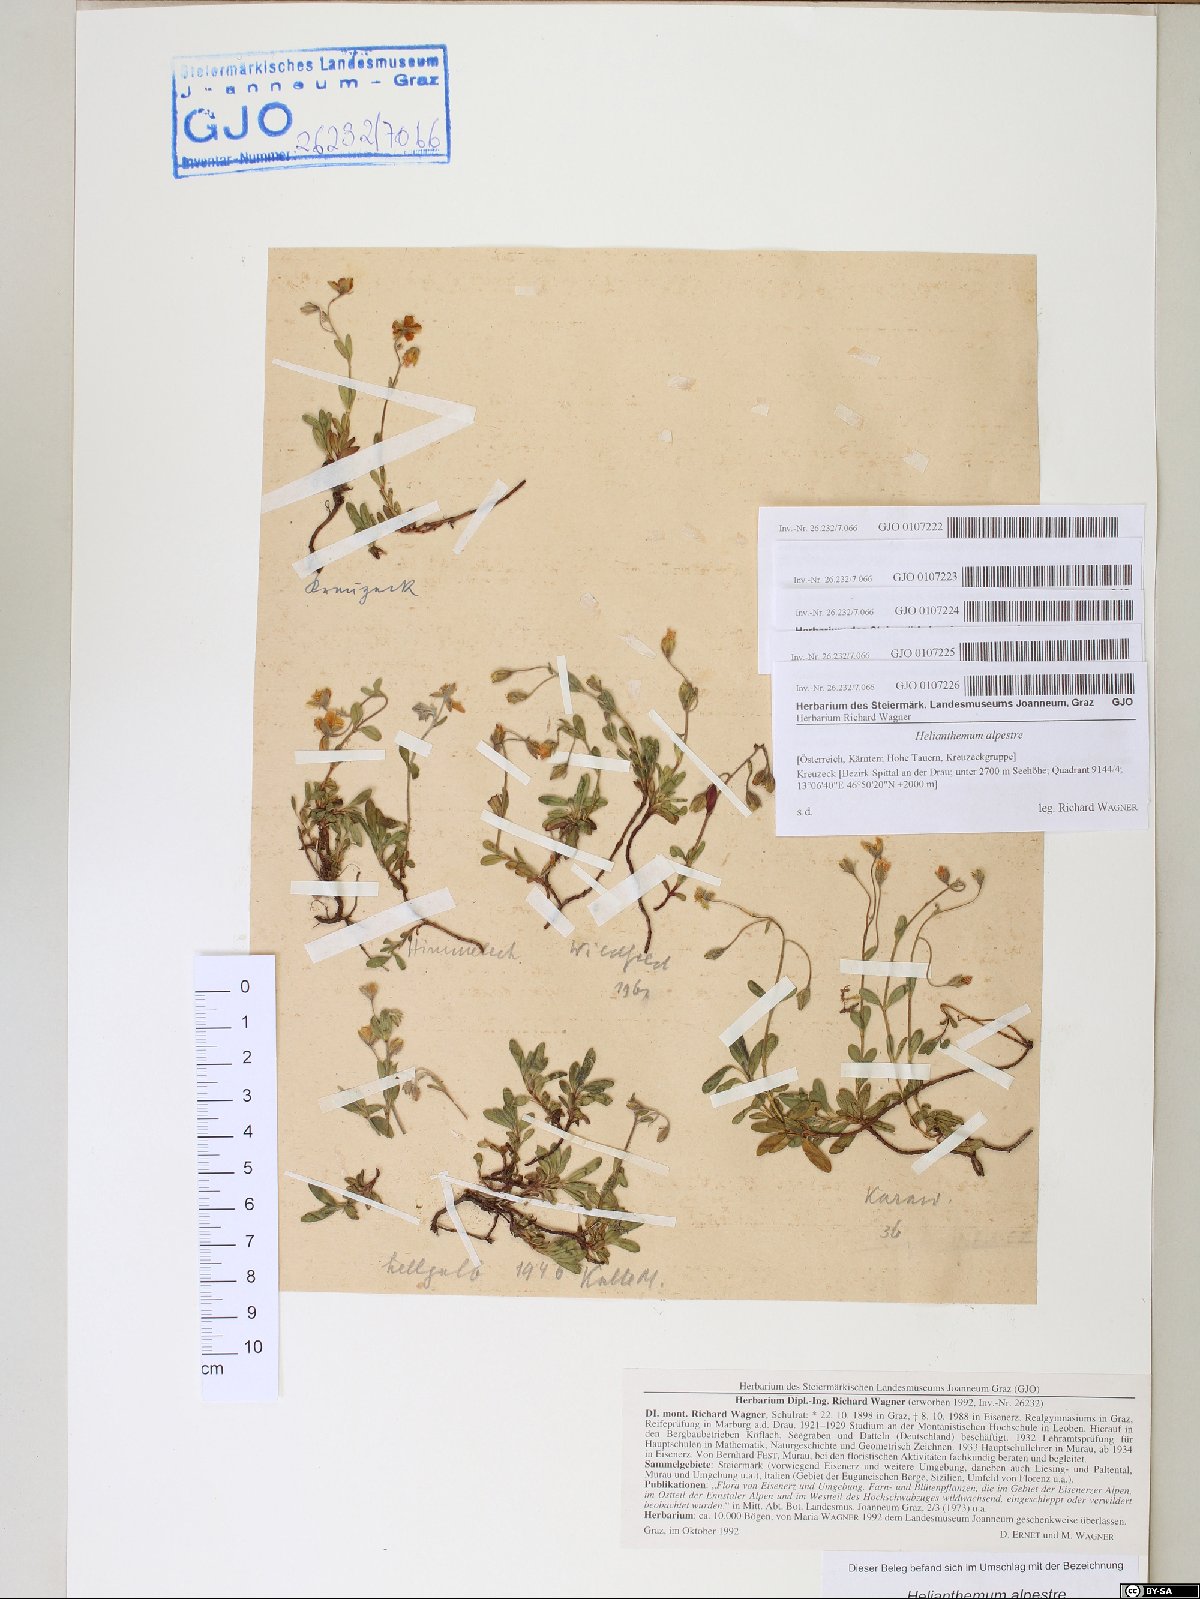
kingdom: Plantae
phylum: Tracheophyta
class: Magnoliopsida
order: Malvales
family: Cistaceae
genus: Helianthemum
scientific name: Helianthemum alpestre
